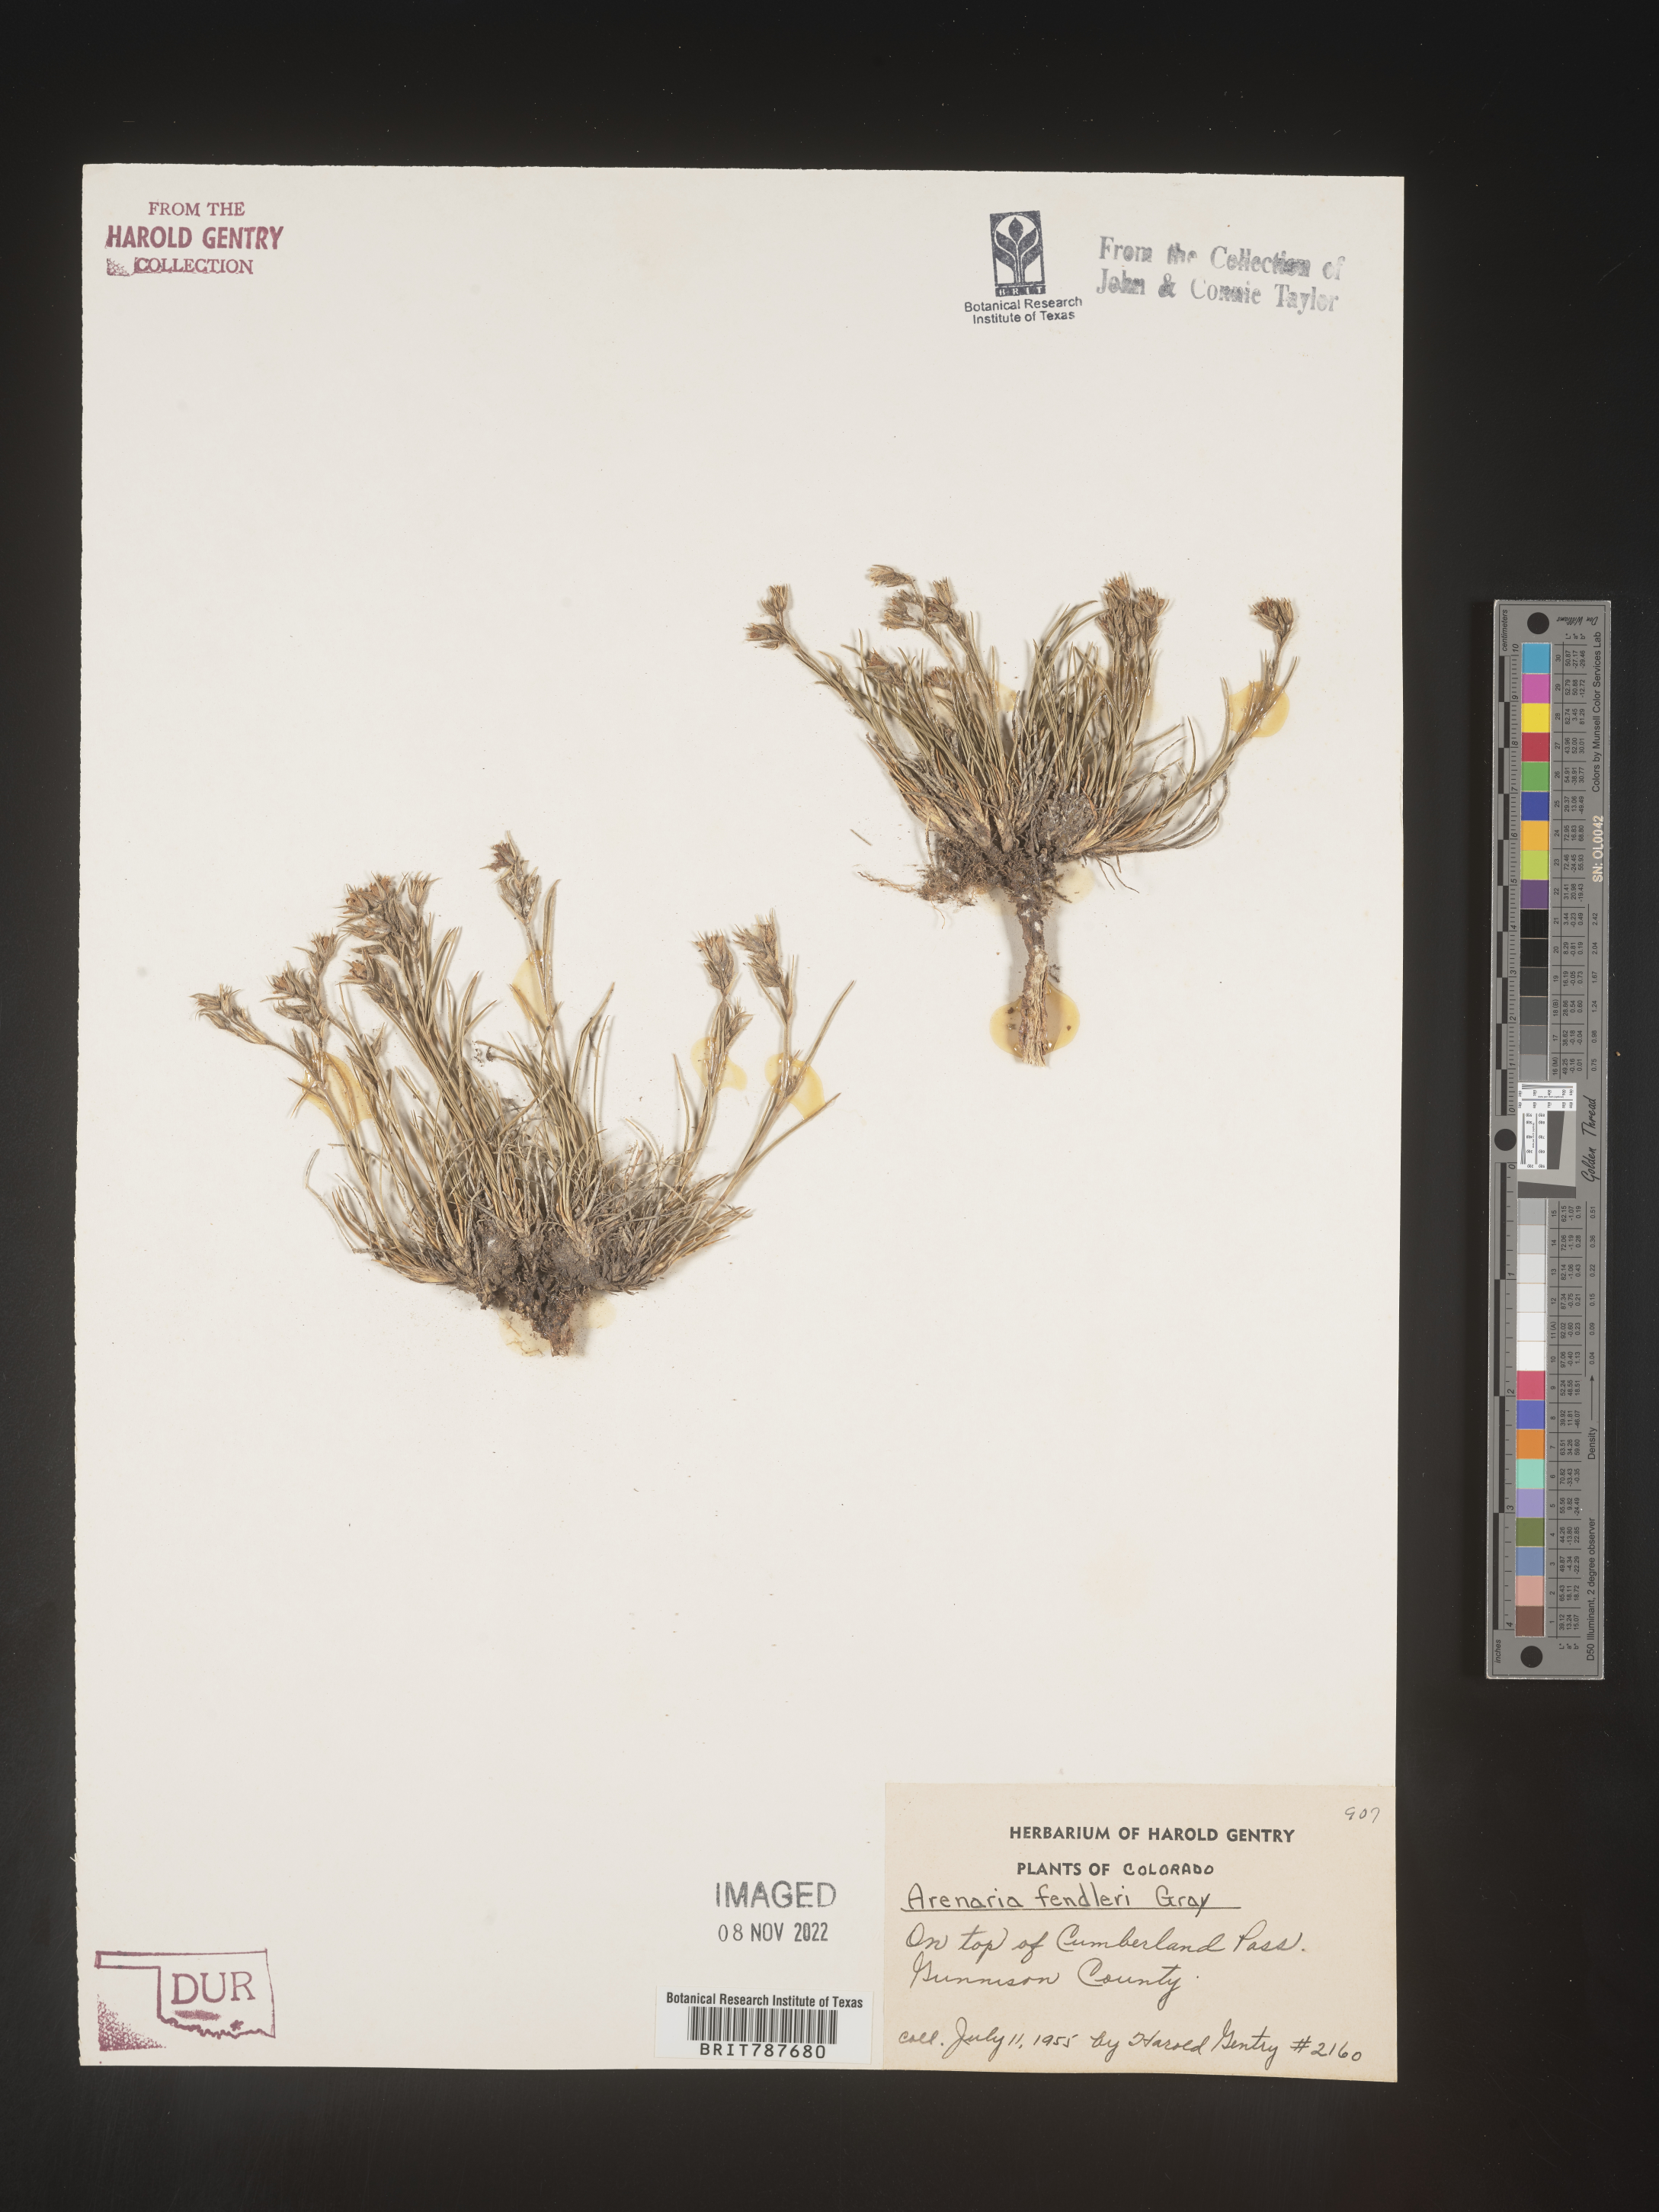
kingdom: Plantae
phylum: Tracheophyta
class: Magnoliopsida
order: Caryophyllales
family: Caryophyllaceae
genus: Arenaria
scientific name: Arenaria
